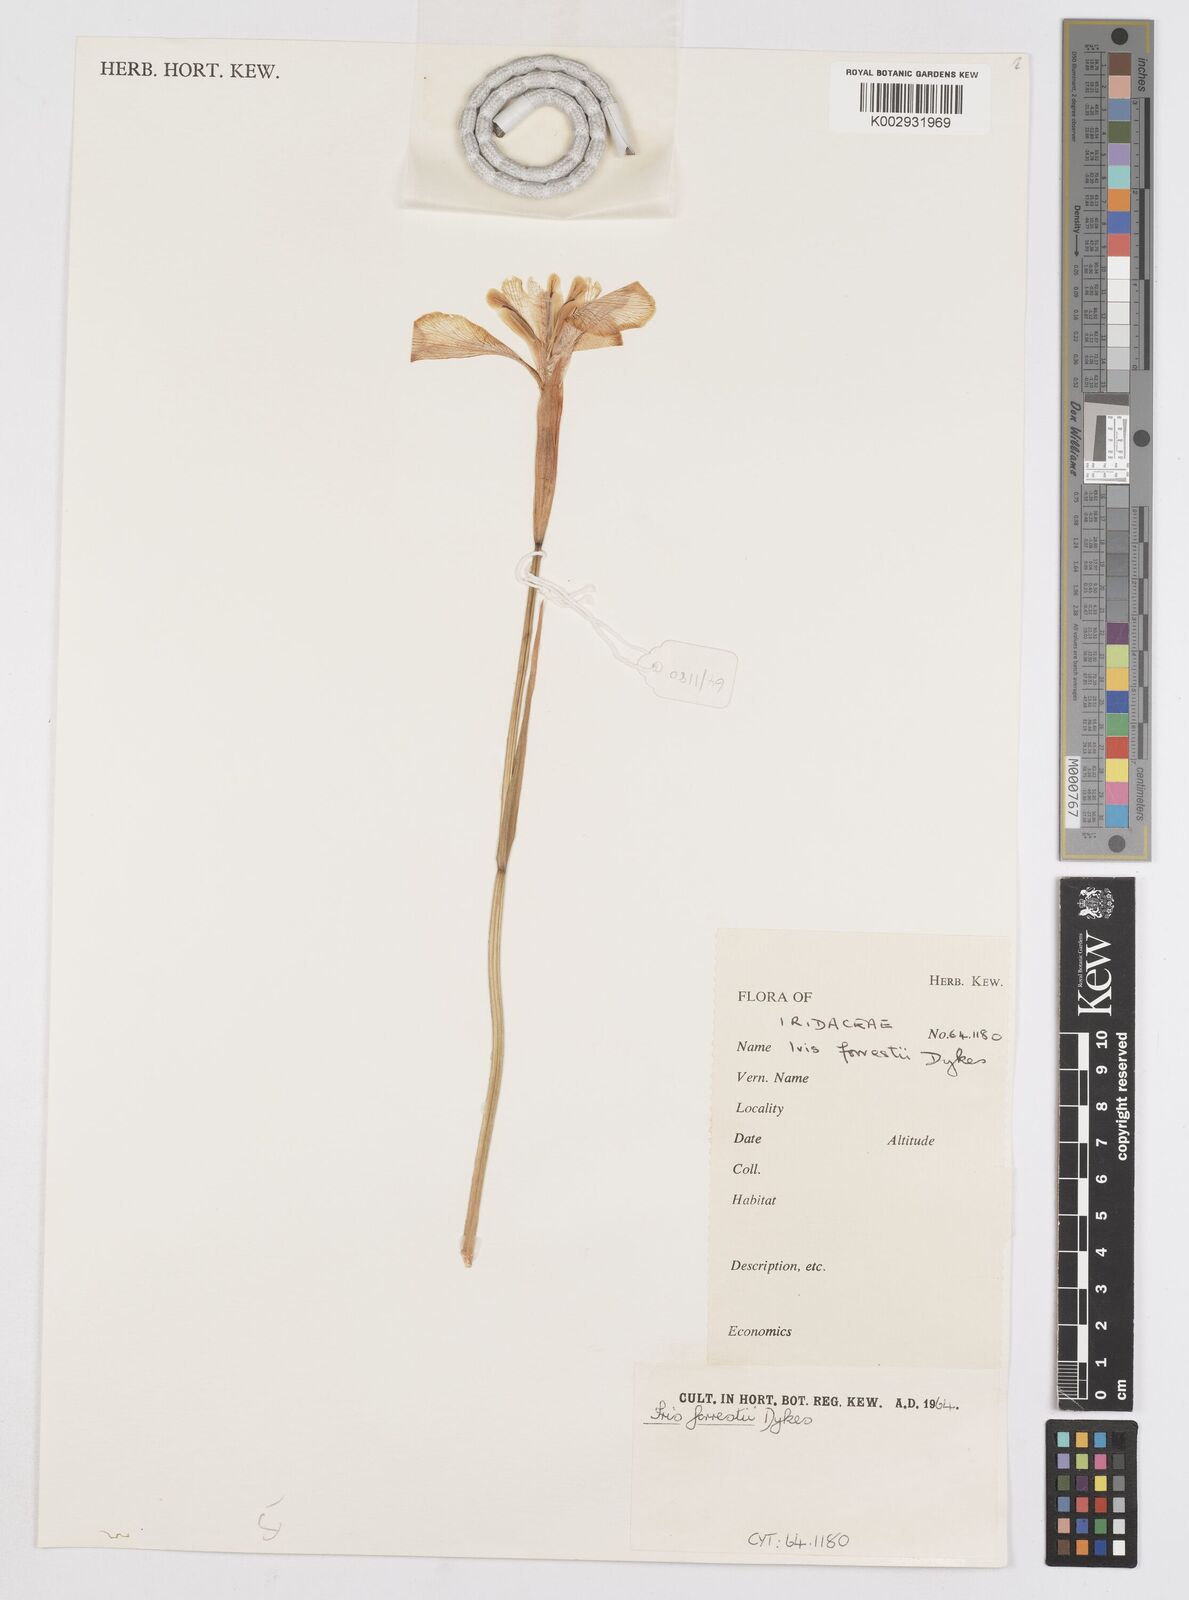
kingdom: Plantae
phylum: Tracheophyta
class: Liliopsida
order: Asparagales
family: Iridaceae
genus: Iris
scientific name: Iris forrestii
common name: Yunnan iris
